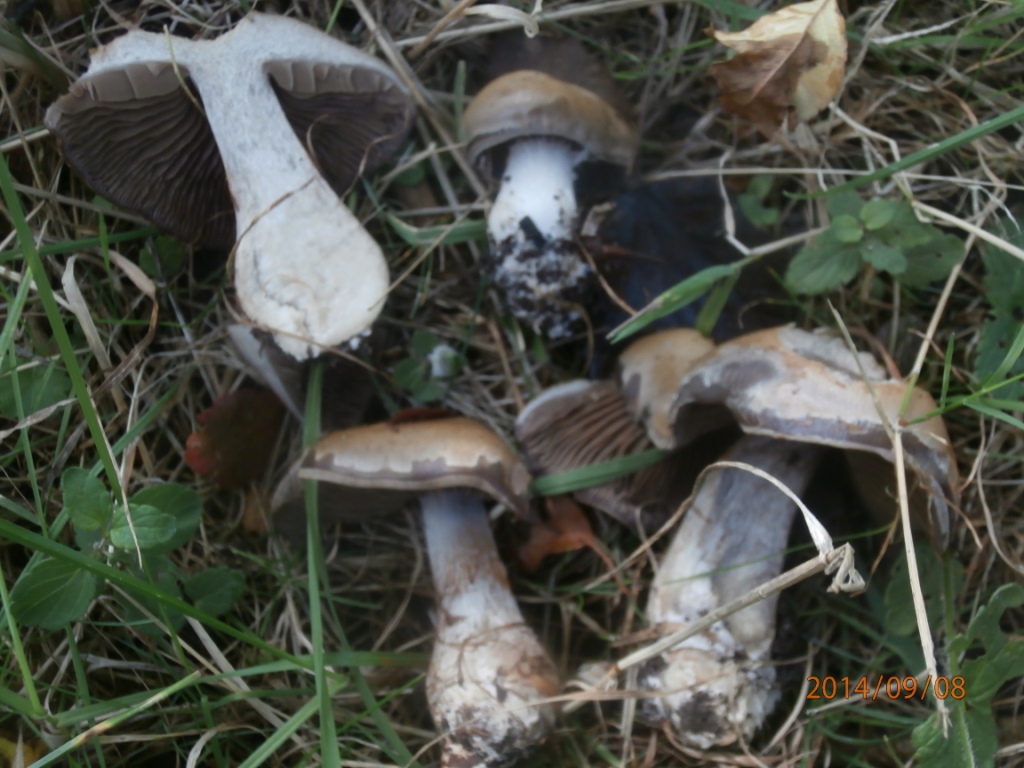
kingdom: Fungi
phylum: Basidiomycota
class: Agaricomycetes
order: Agaricales
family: Cortinariaceae
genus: Cortinarius
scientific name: Cortinarius
